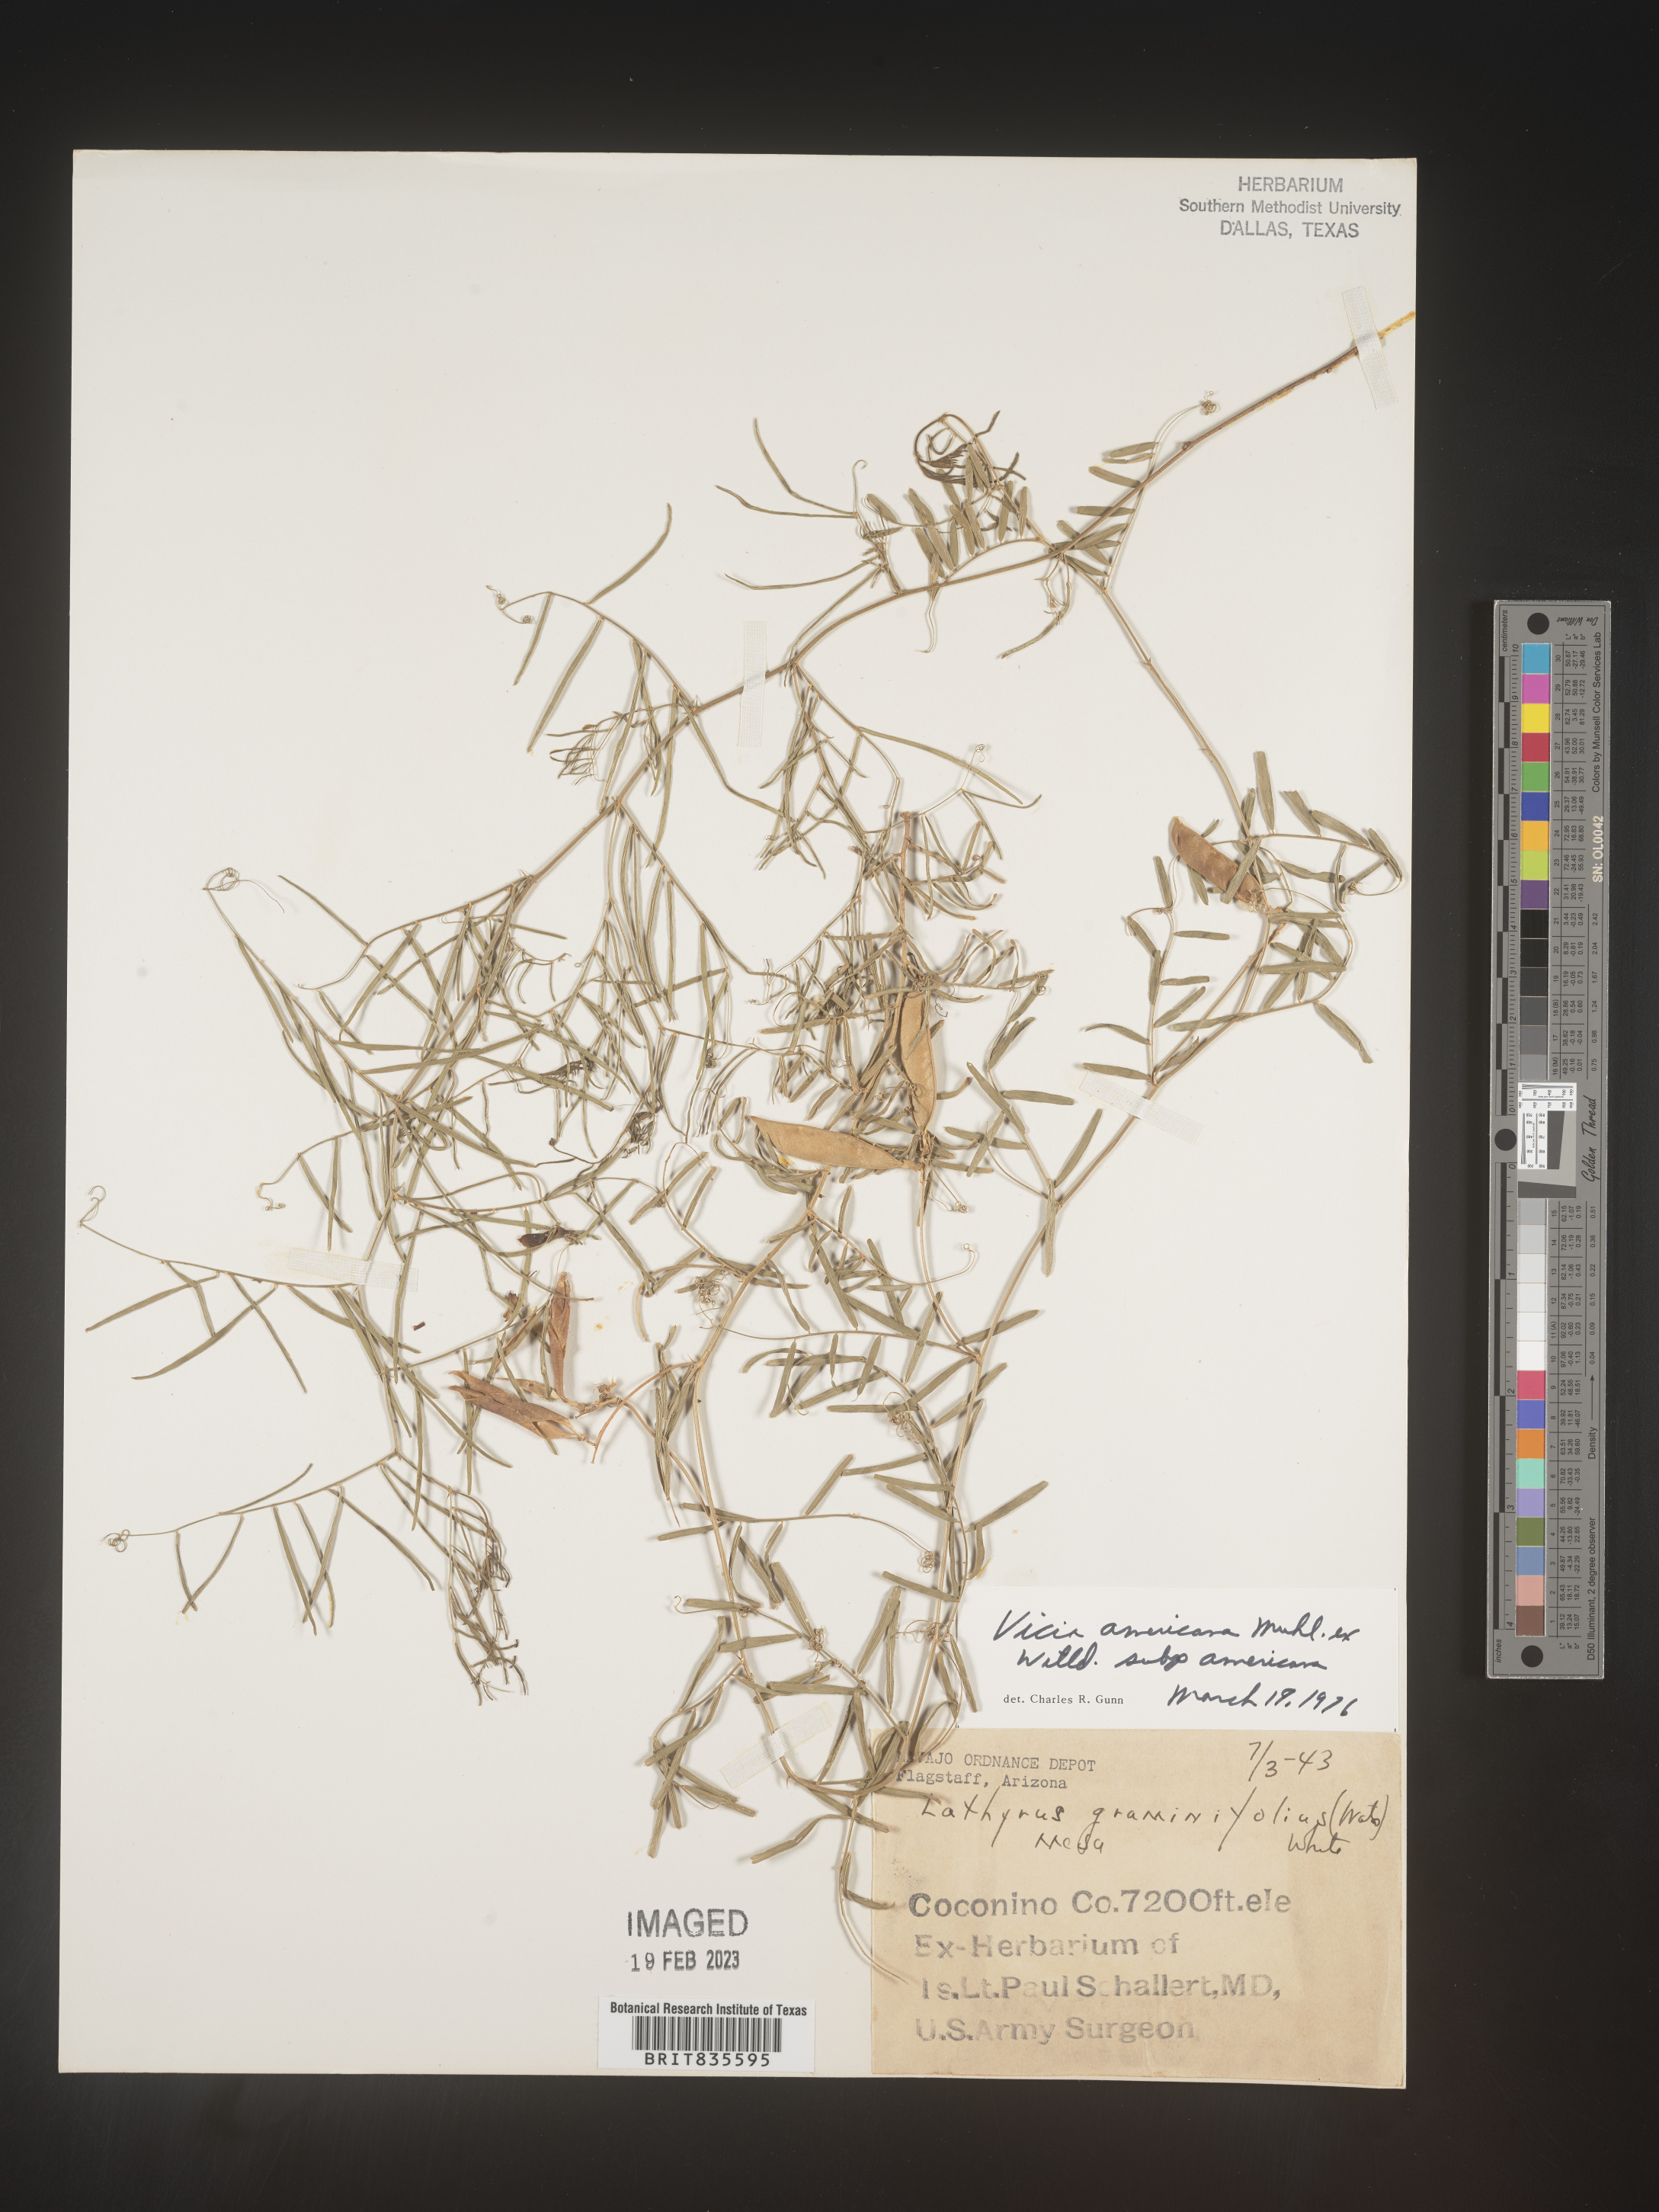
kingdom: Plantae
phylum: Tracheophyta
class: Magnoliopsida
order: Fabales
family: Fabaceae
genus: Vicia
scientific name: Vicia americana
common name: American vetch
